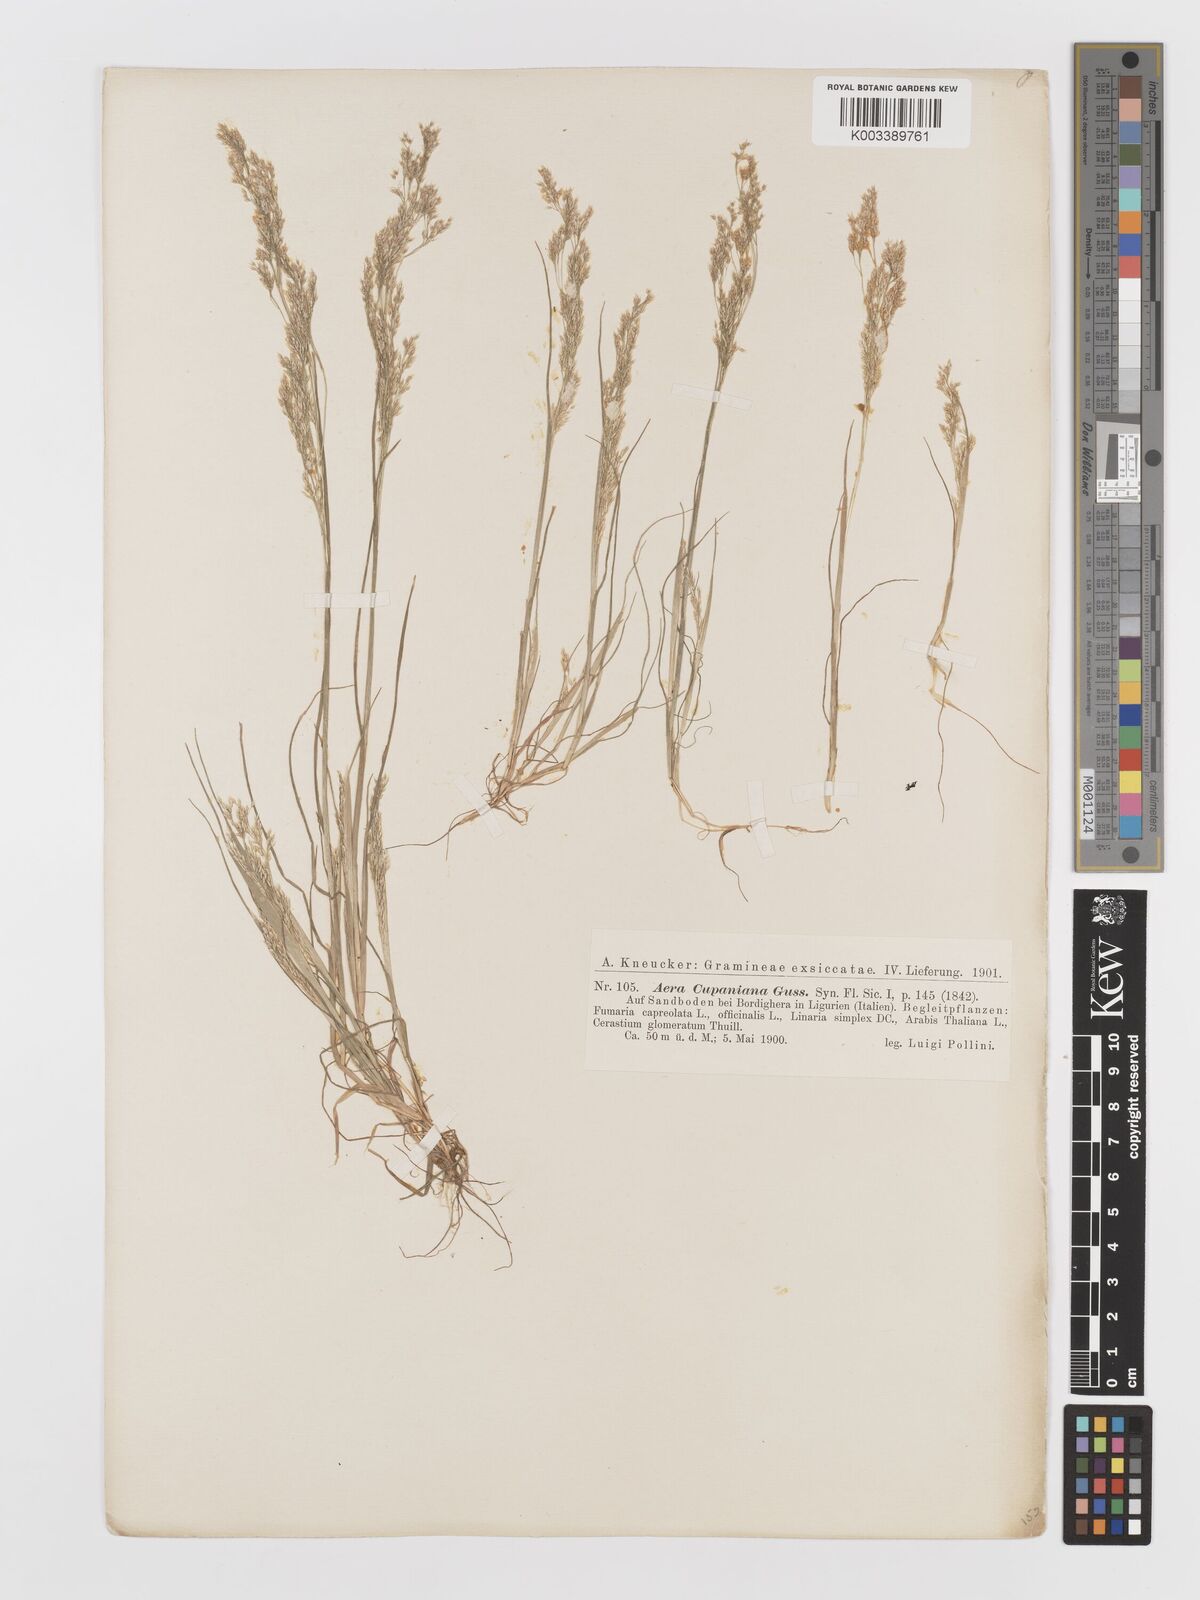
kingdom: Plantae
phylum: Tracheophyta
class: Liliopsida
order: Poales
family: Poaceae
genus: Aira
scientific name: Aira cupaniana
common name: Silver hairgrass
